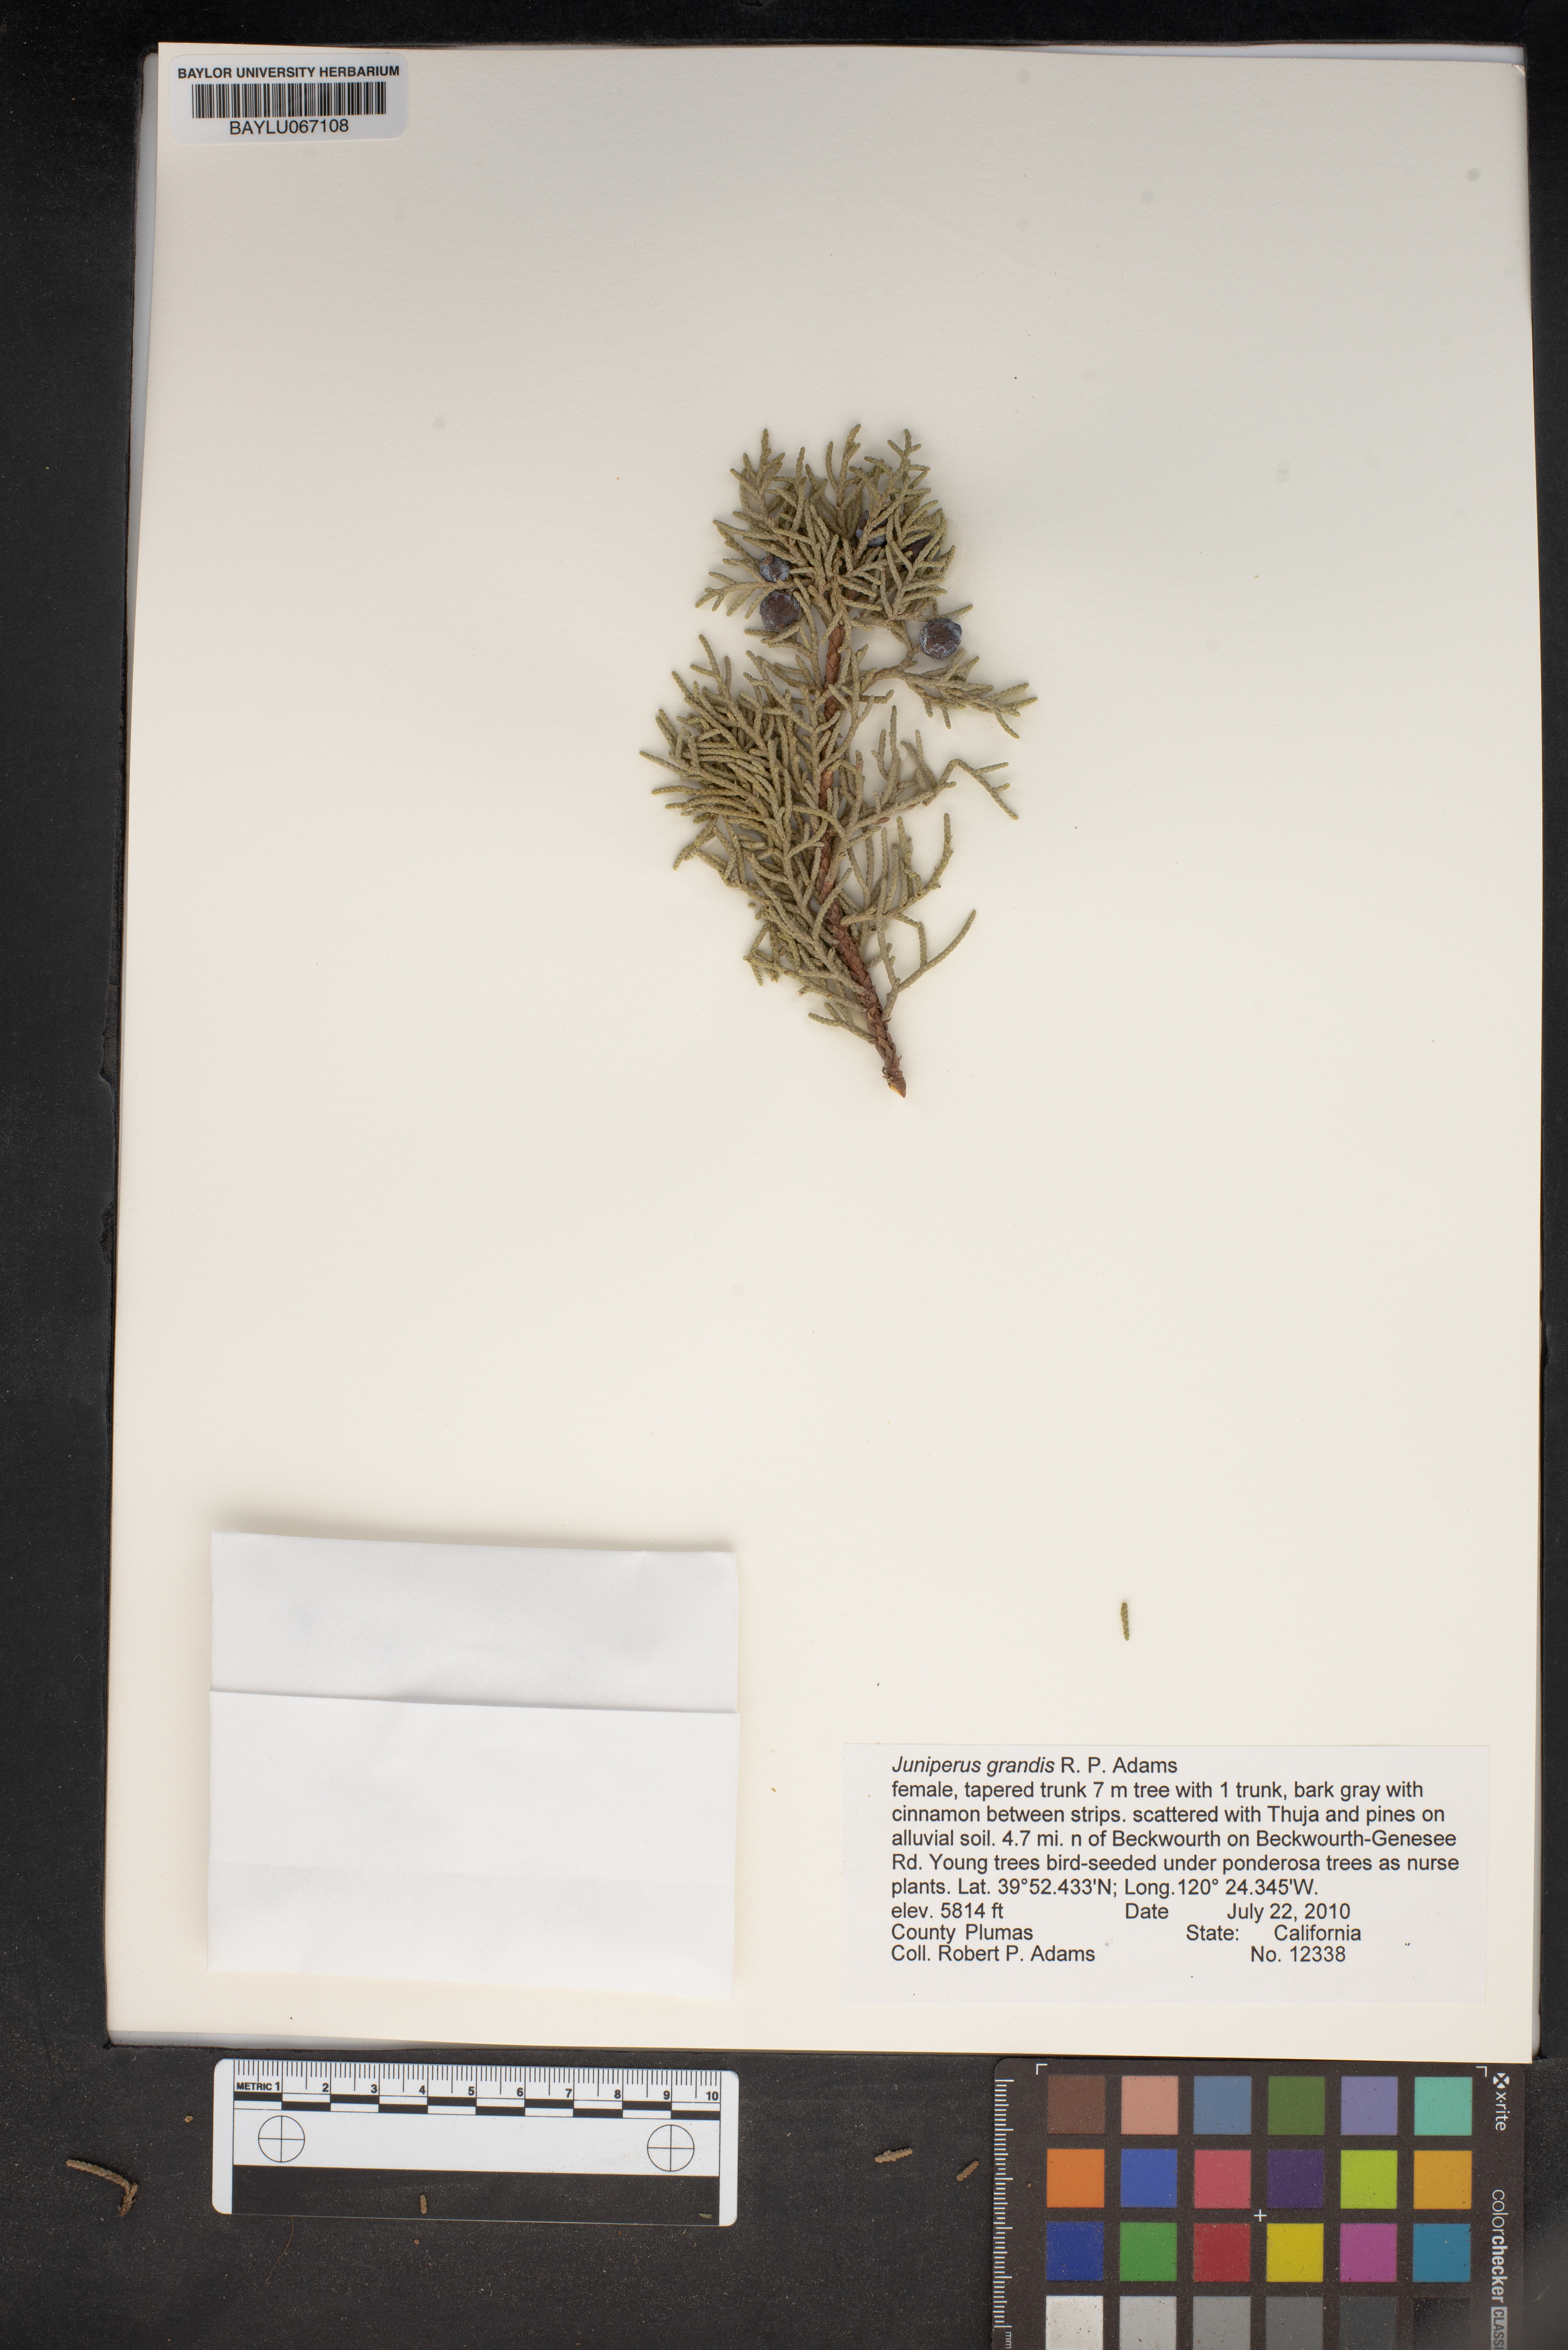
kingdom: Plantae
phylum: Tracheophyta
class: Pinopsida
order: Pinales
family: Cupressaceae
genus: Juniperus
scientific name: Juniperus occidentalis
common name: Western juniper
